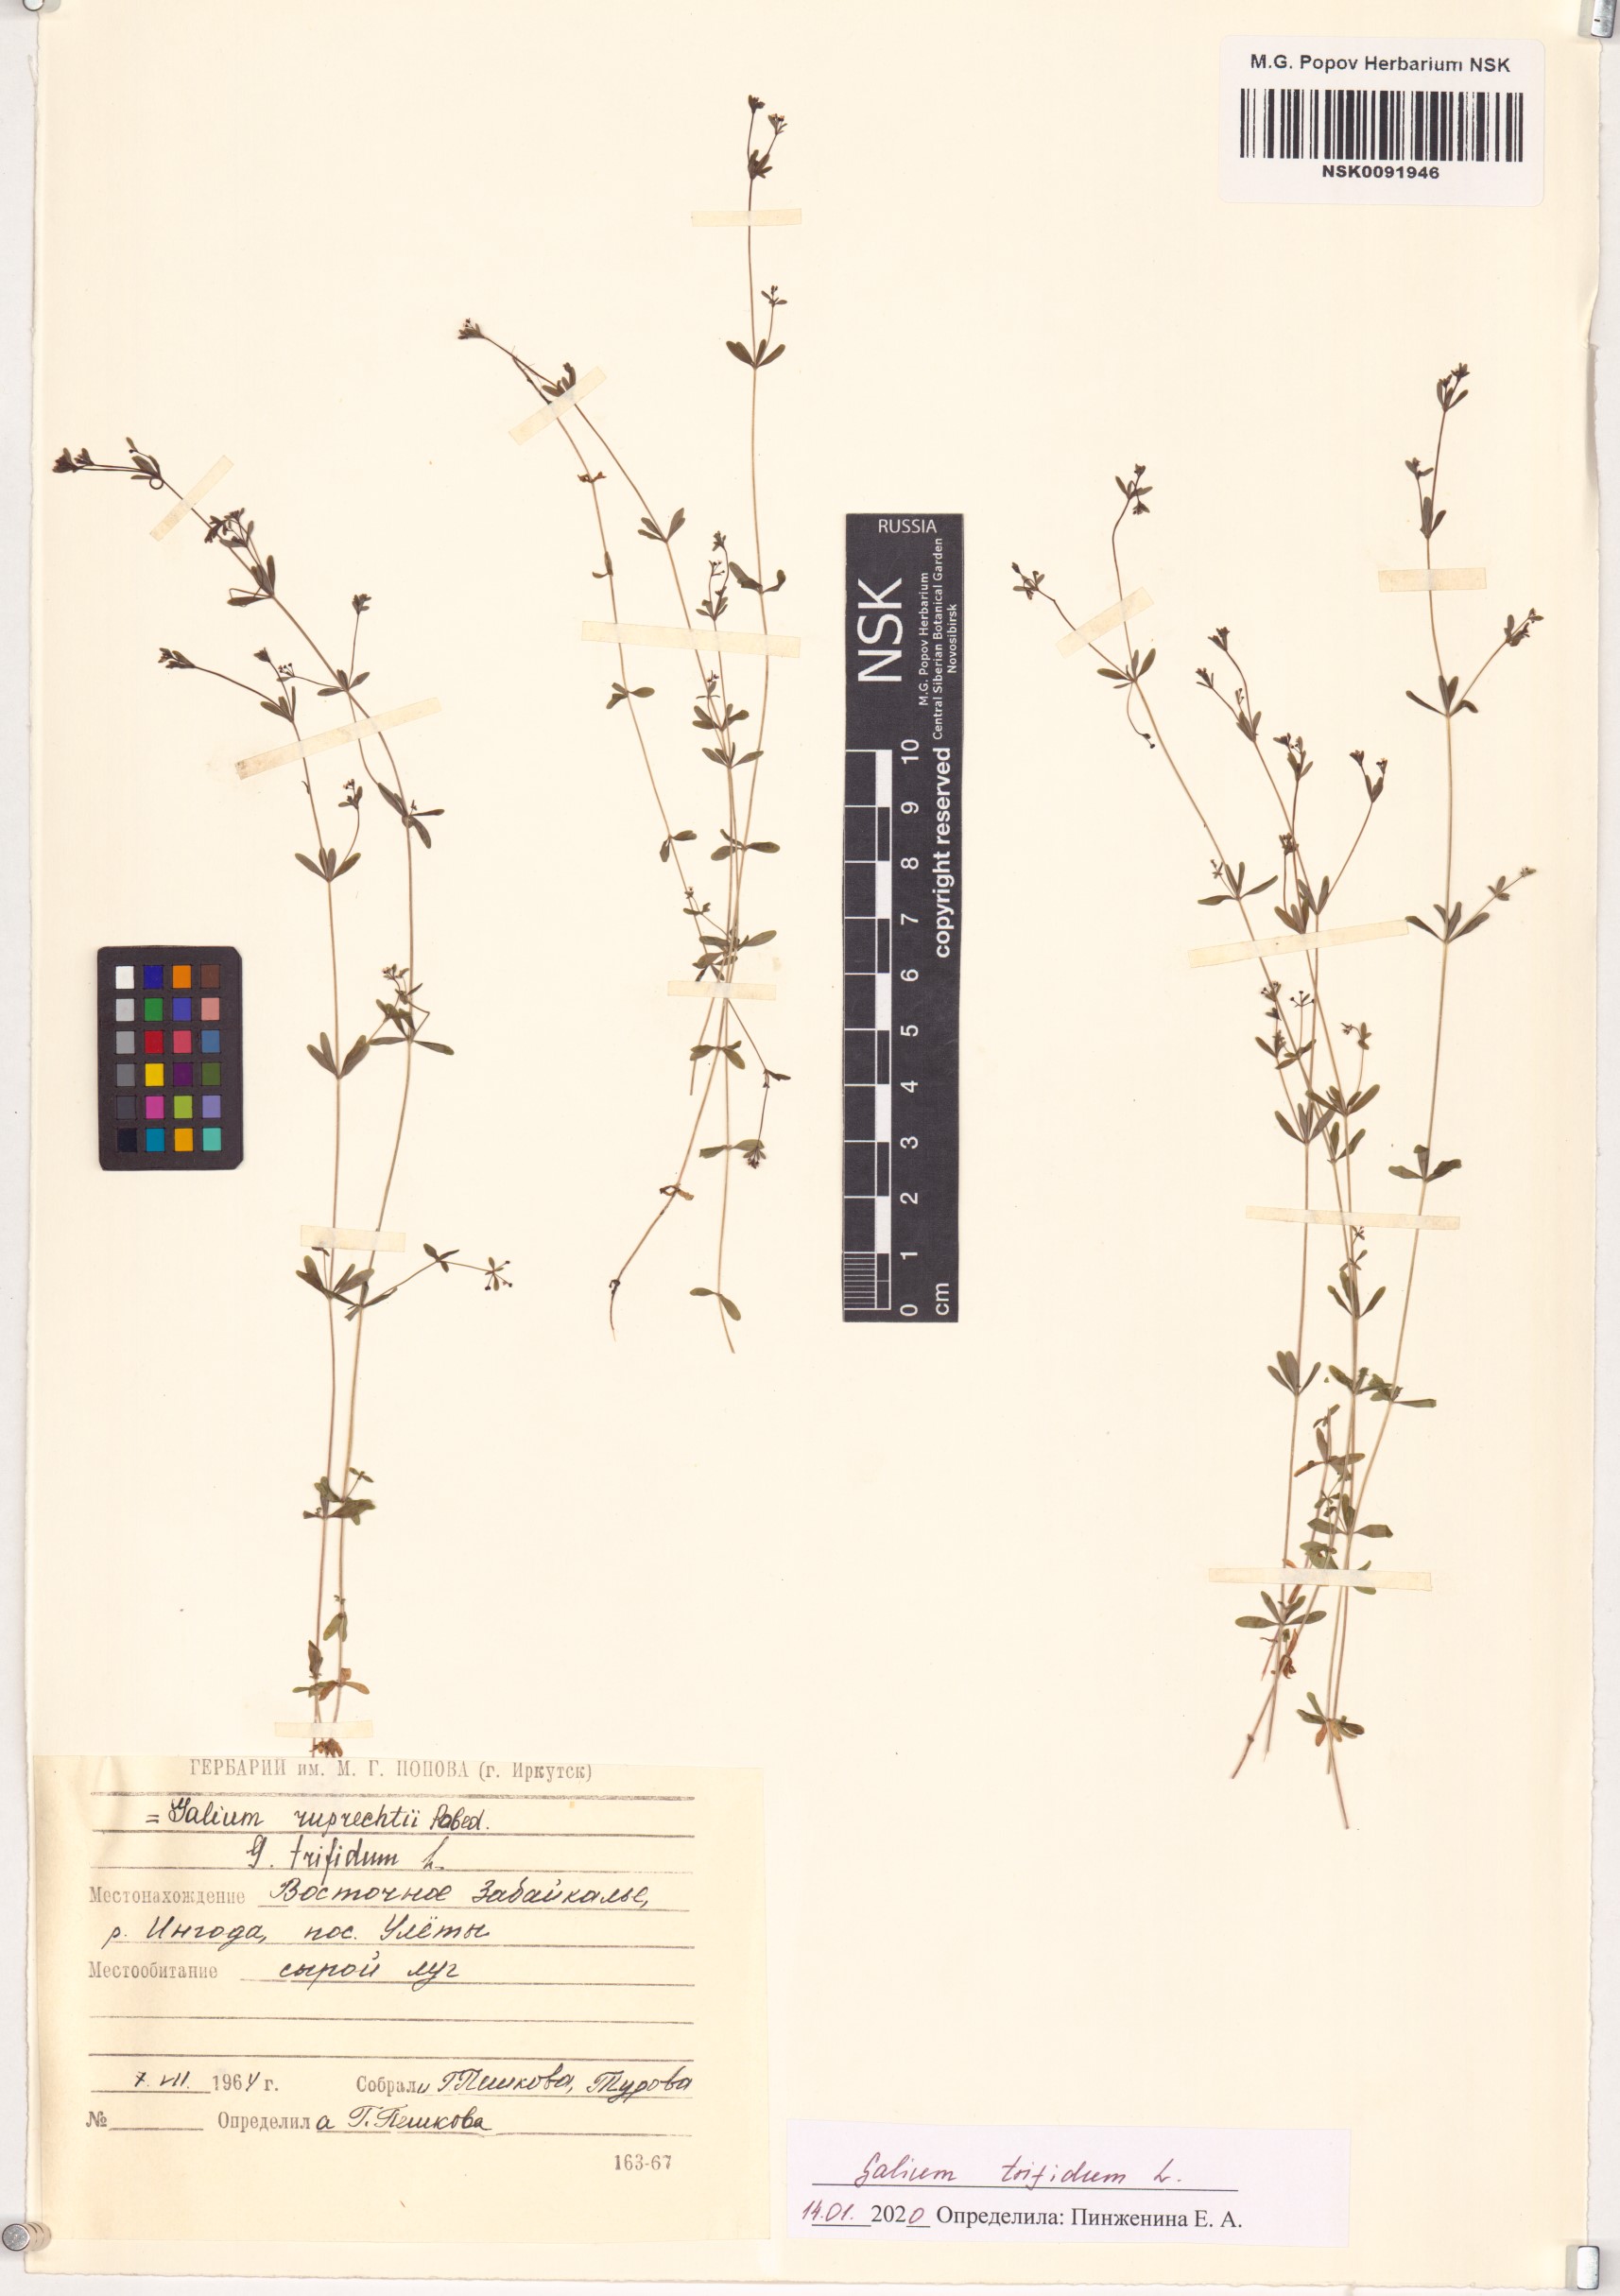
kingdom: Plantae
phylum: Tracheophyta
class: Magnoliopsida
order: Gentianales
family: Rubiaceae
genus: Galium
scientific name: Galium trifidum
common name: Small bedstraw
